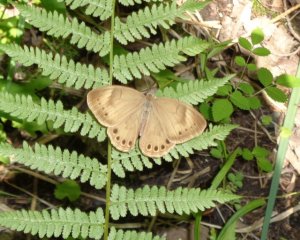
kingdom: Animalia
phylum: Arthropoda
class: Insecta
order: Lepidoptera
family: Nymphalidae
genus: Lethe
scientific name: Lethe eurydice
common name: Appalachian Eyed Brown
